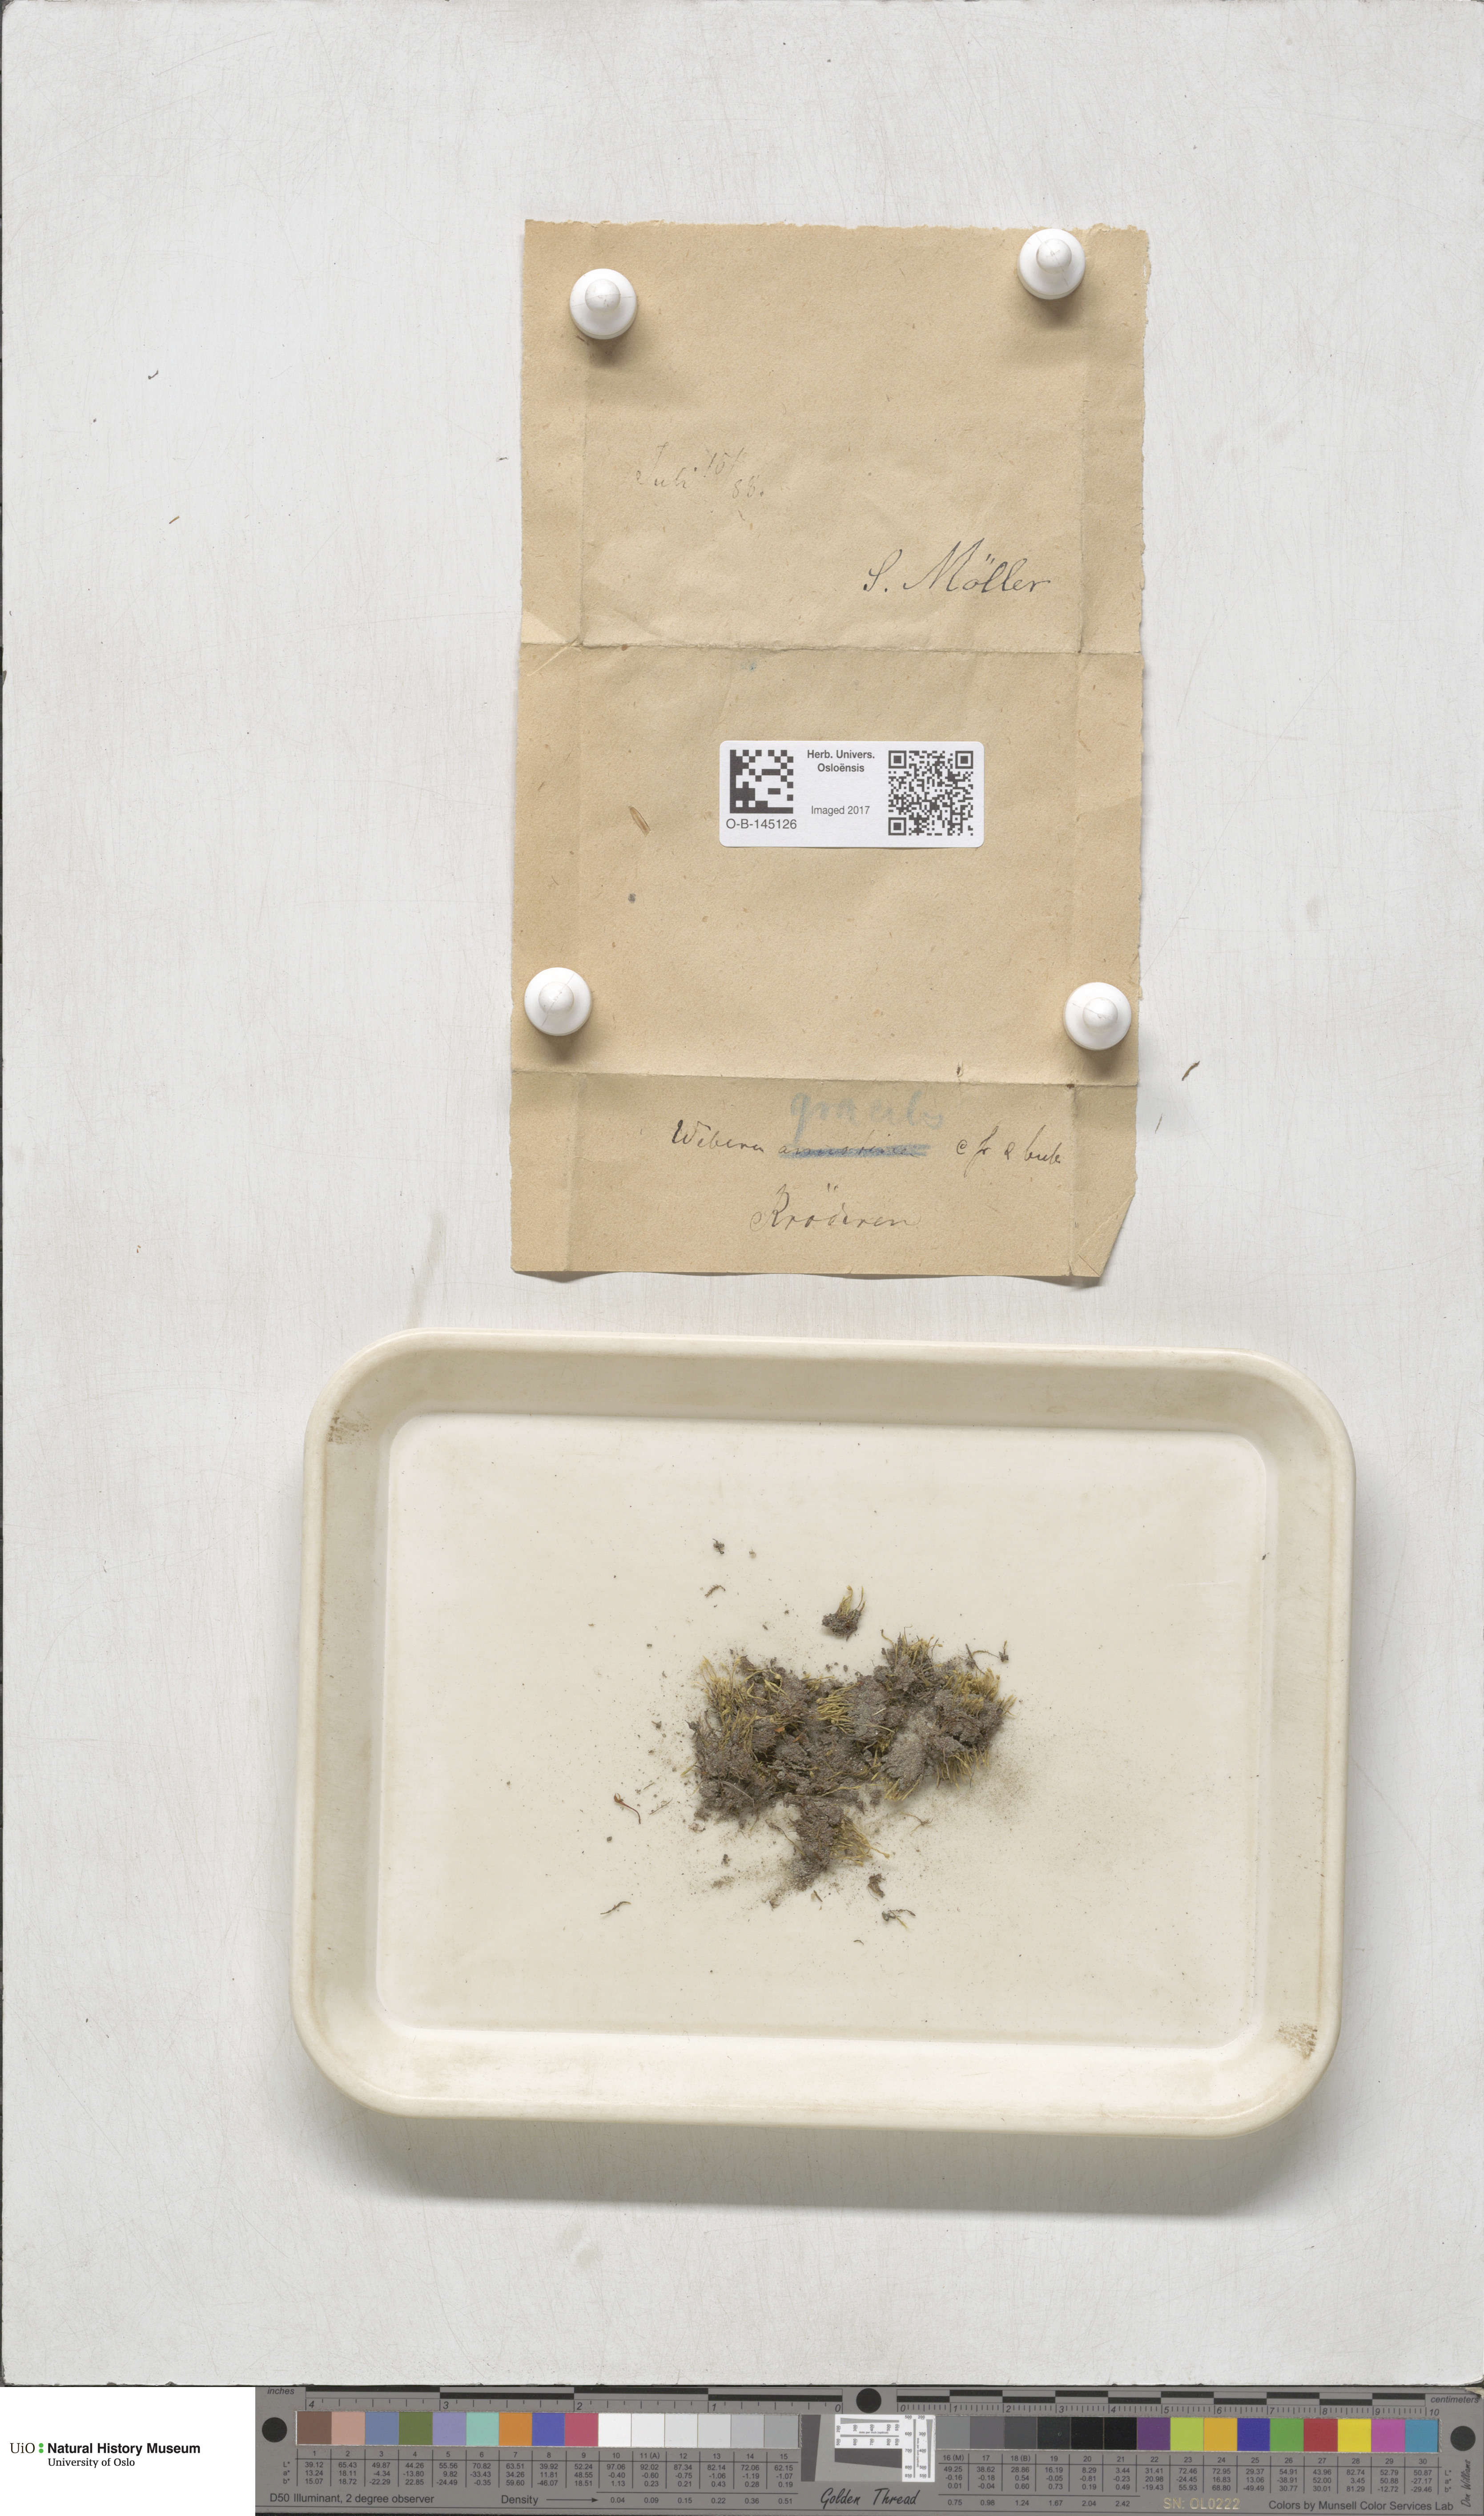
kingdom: Plantae
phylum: Bryophyta
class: Bryopsida
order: Bryales
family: Mniaceae
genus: Pohlia
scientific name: Pohlia filum
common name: Slender nodding moss
